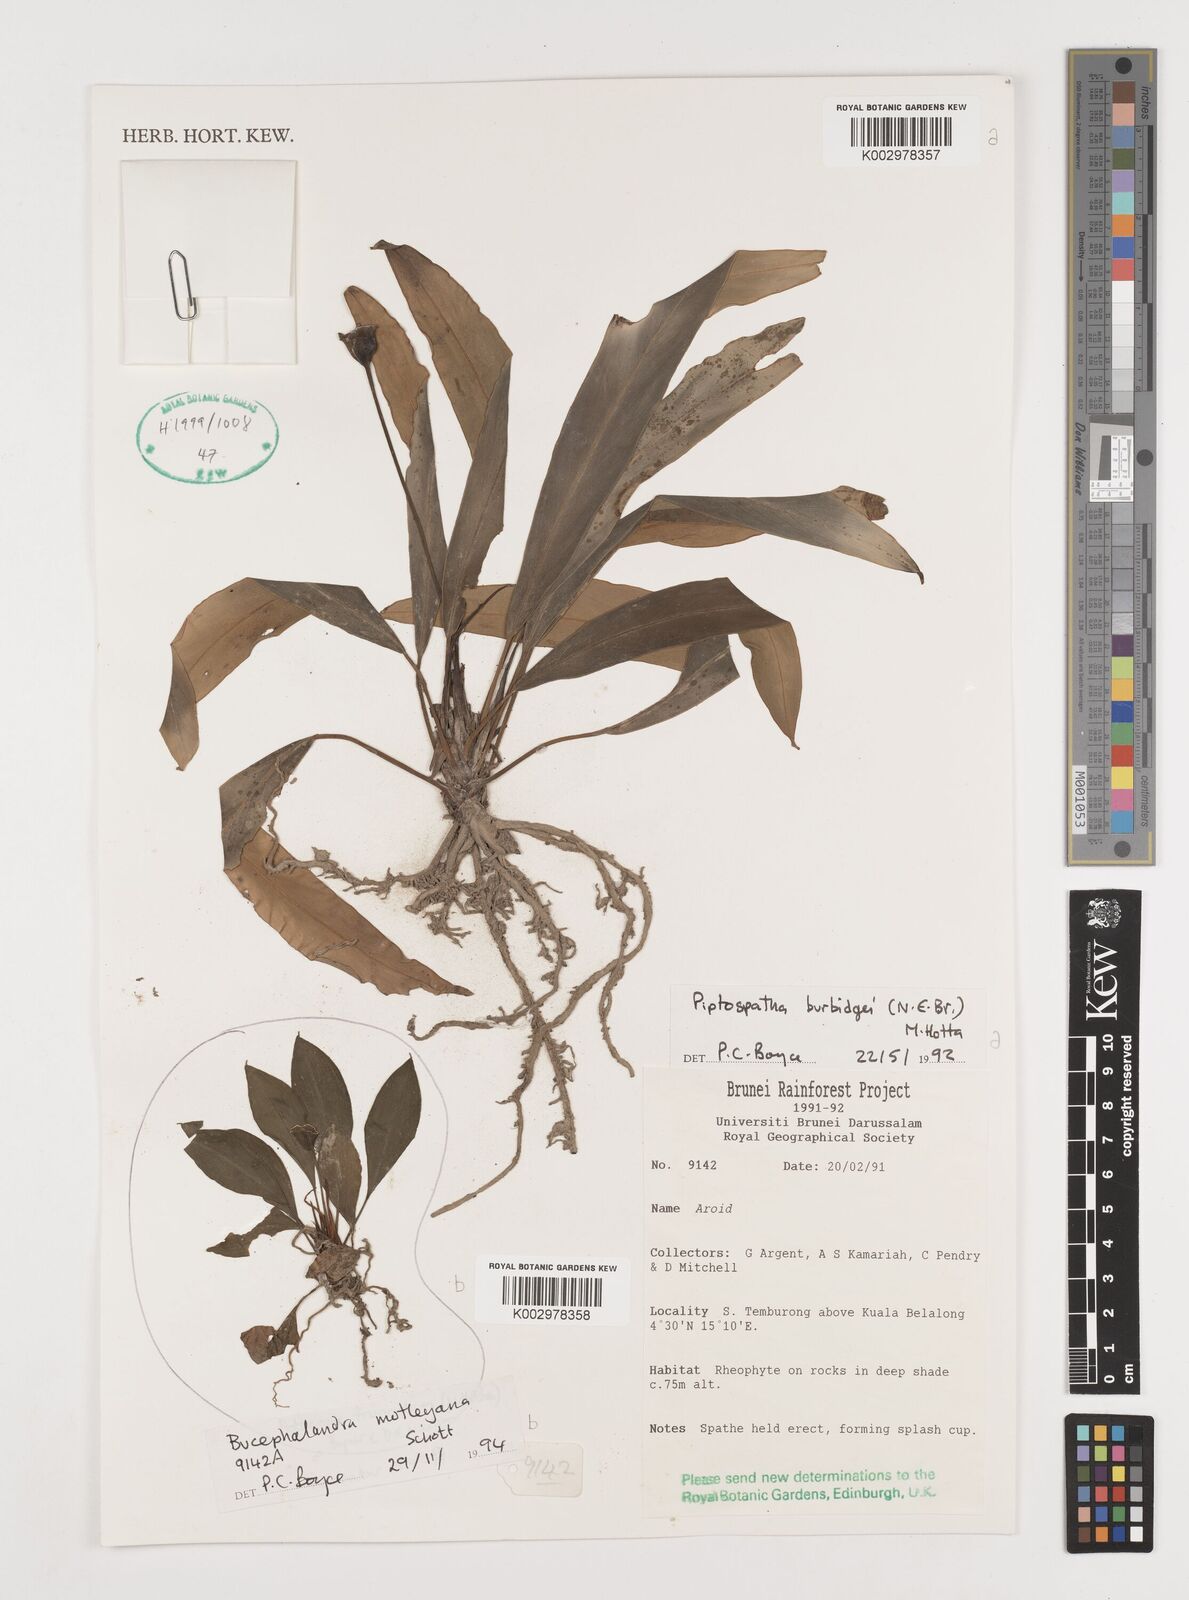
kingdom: Plantae
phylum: Tracheophyta
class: Liliopsida
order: Alismatales
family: Araceae
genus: Bucephalandra
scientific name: Bucephalandra motleyana
